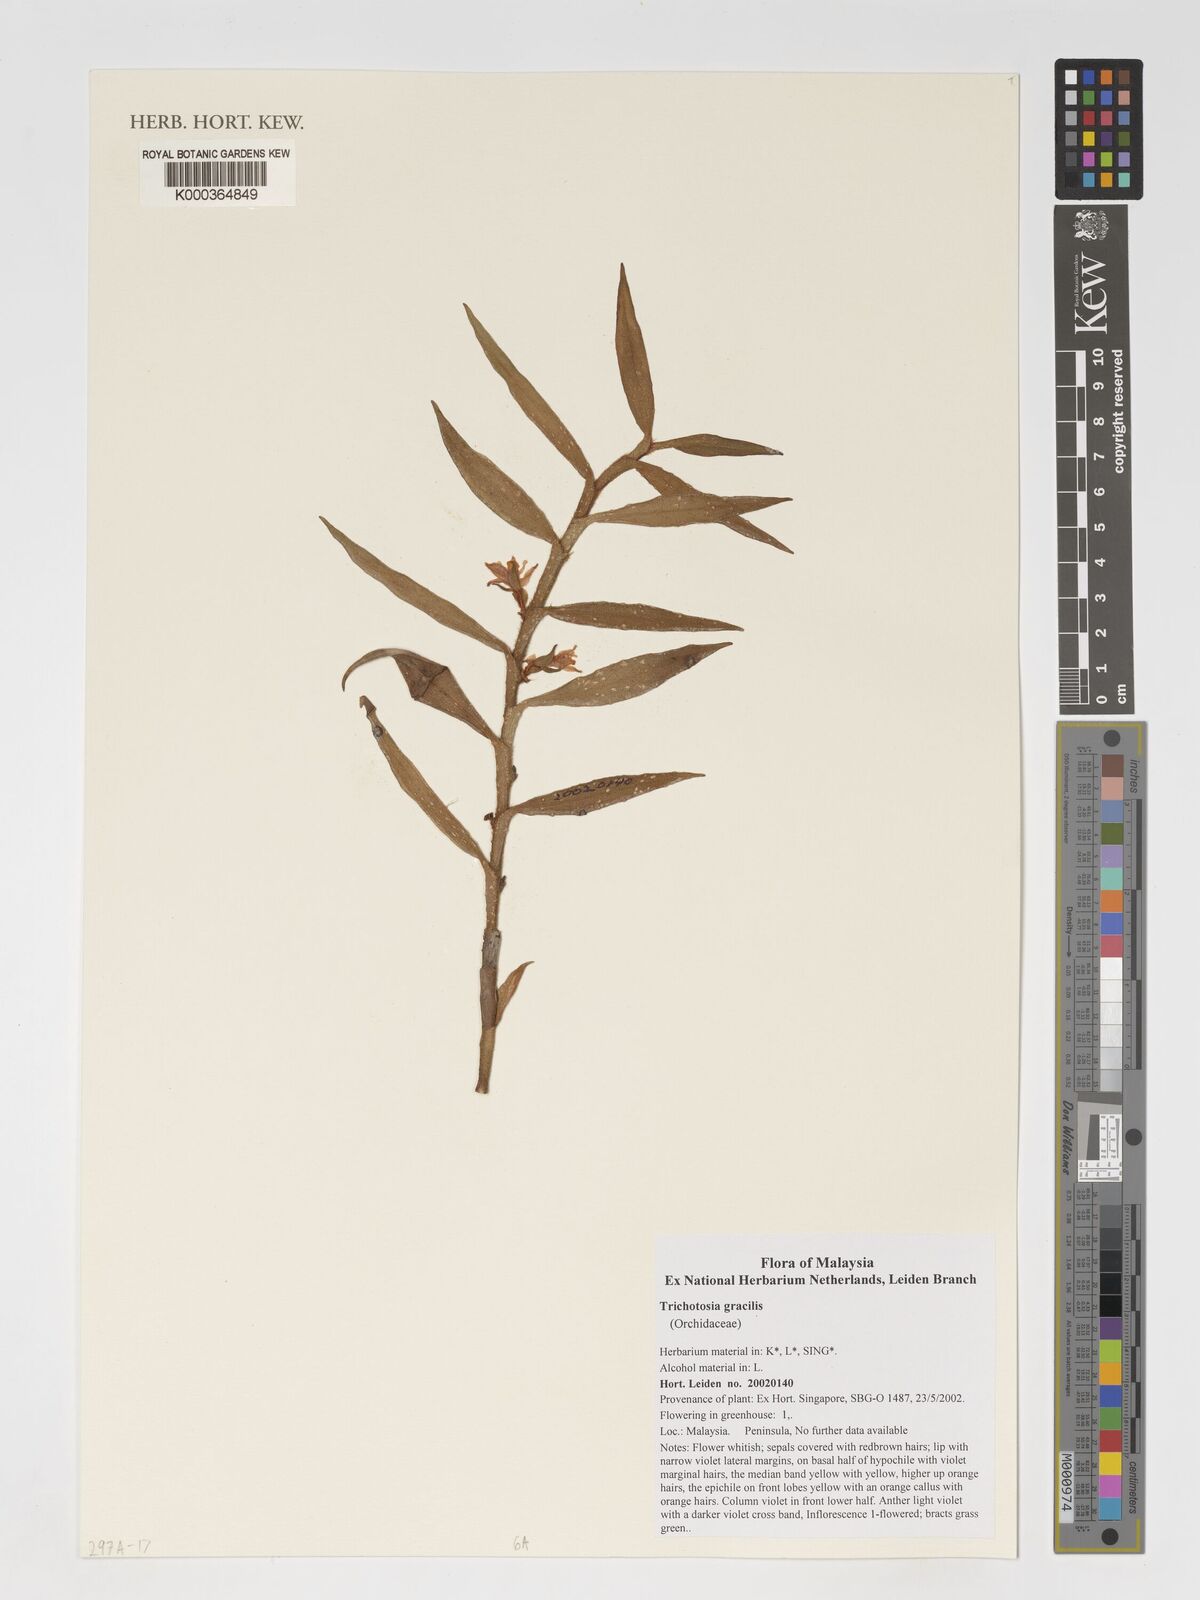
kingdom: Plantae
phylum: Tracheophyta
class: Liliopsida
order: Asparagales
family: Orchidaceae
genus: Trichotosia
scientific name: Trichotosia gracilis
